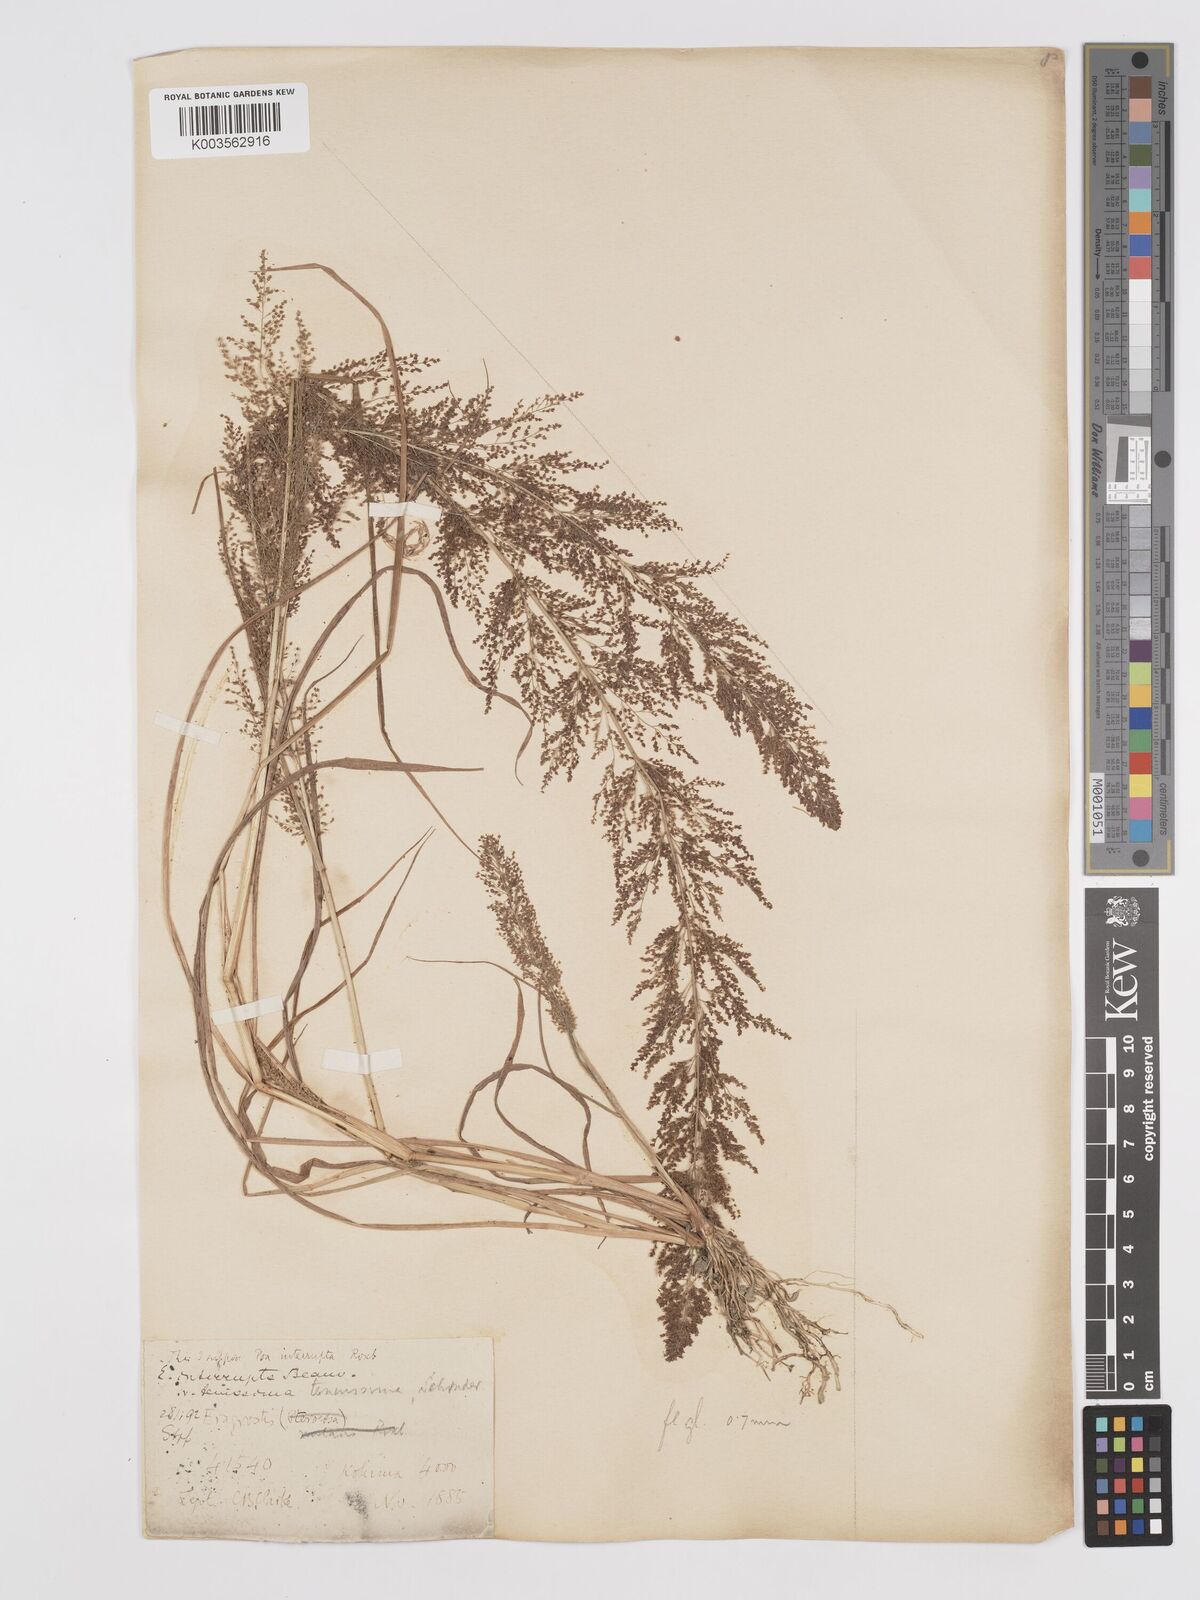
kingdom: Plantae
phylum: Tracheophyta
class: Liliopsida
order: Poales
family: Poaceae
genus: Eragrostis
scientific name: Eragrostis japonica
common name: Pond lovegrass
